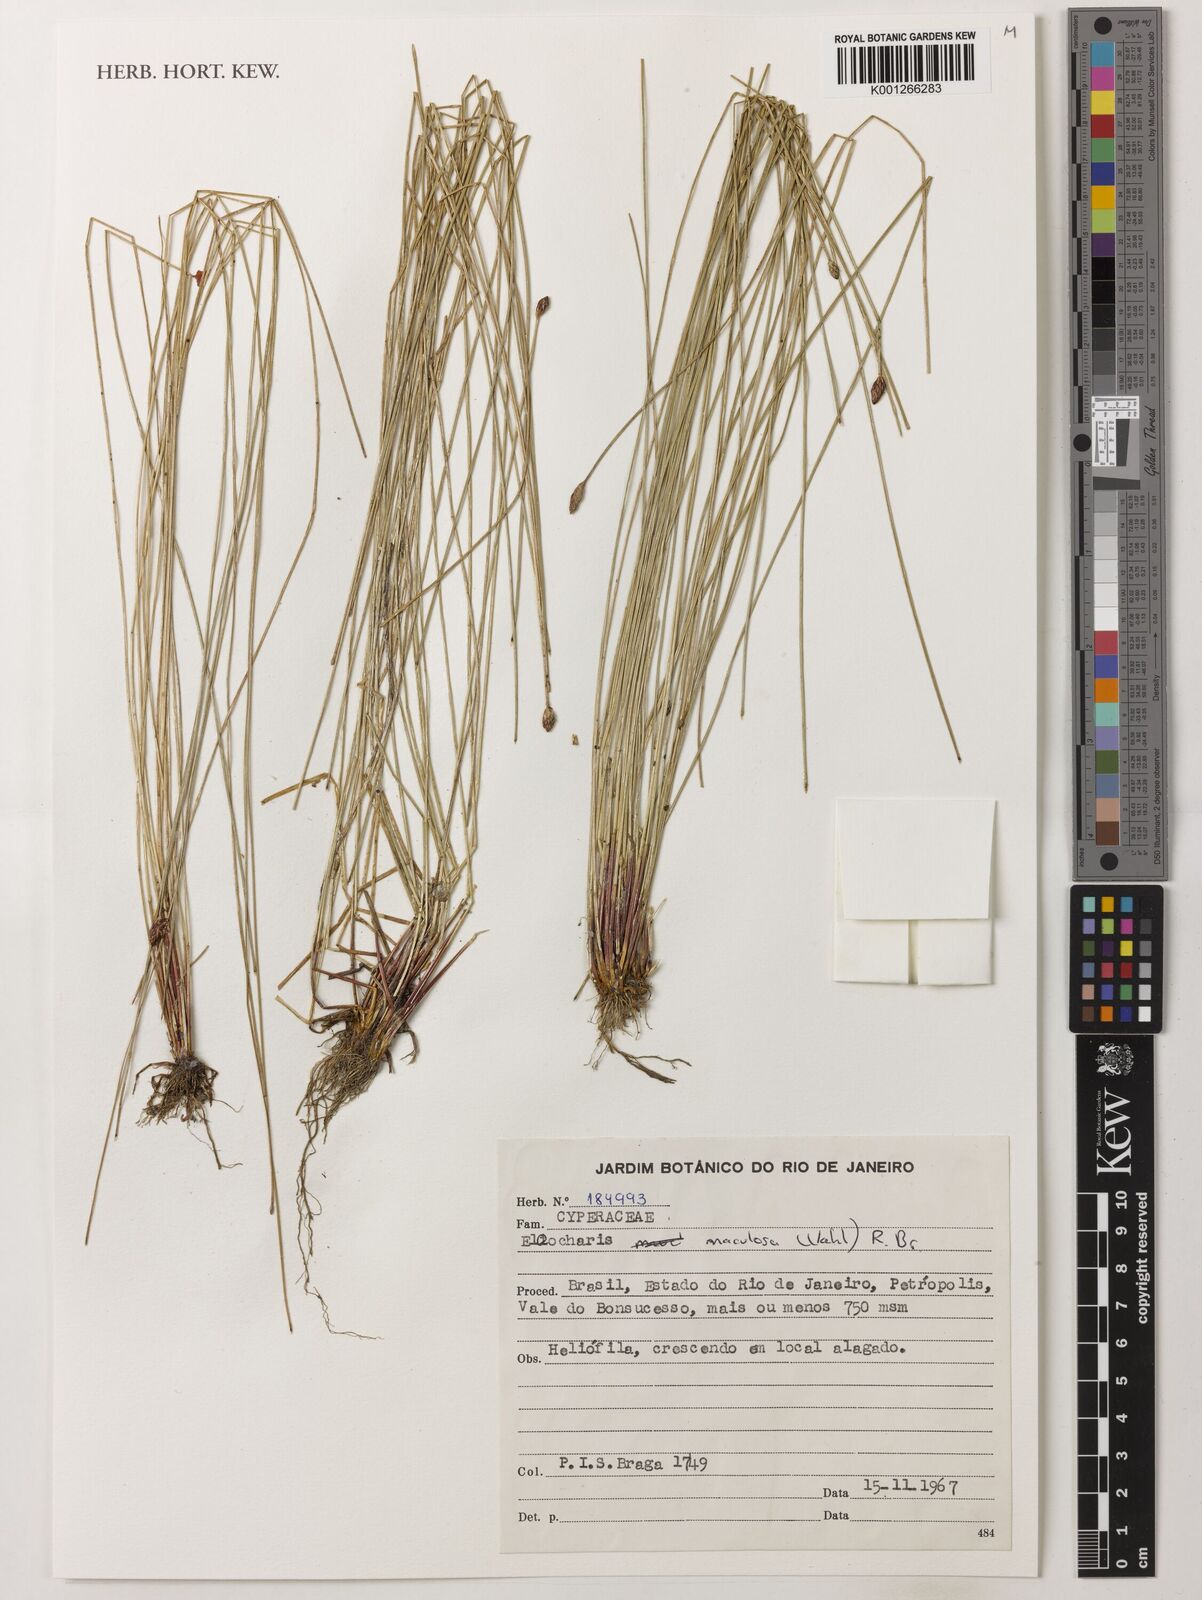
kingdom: Plantae
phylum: Tracheophyta
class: Liliopsida
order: Poales
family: Cyperaceae
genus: Eleocharis
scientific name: Eleocharis maculosa
